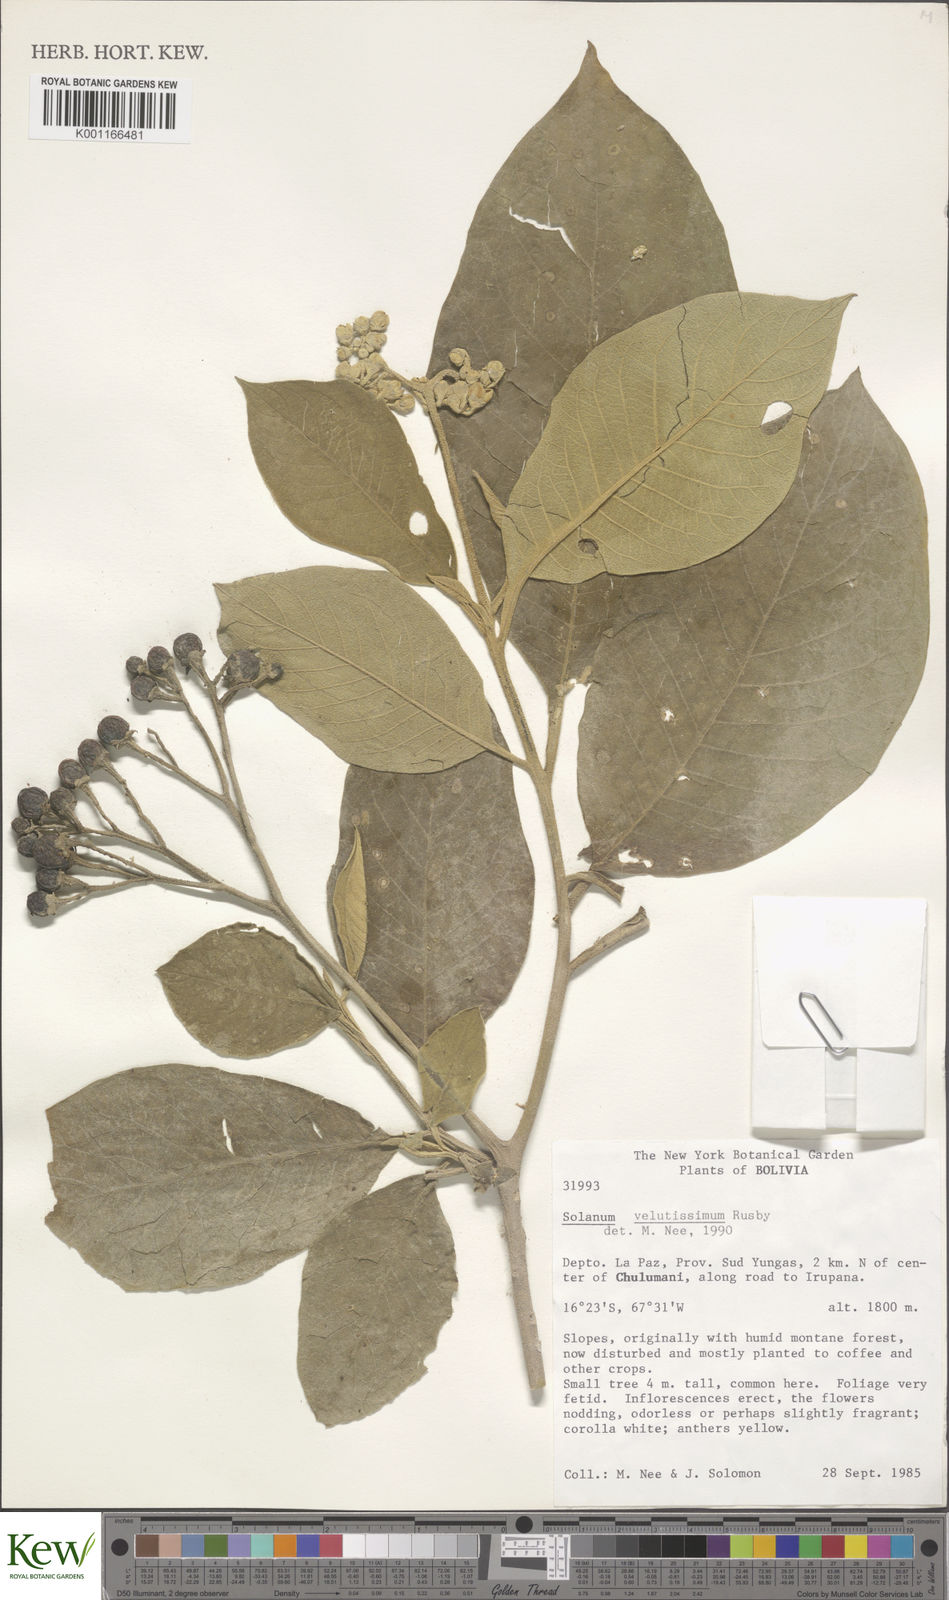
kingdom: Plantae
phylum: Tracheophyta
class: Magnoliopsida
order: Solanales
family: Solanaceae
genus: Solanum
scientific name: Solanum velutissimum
